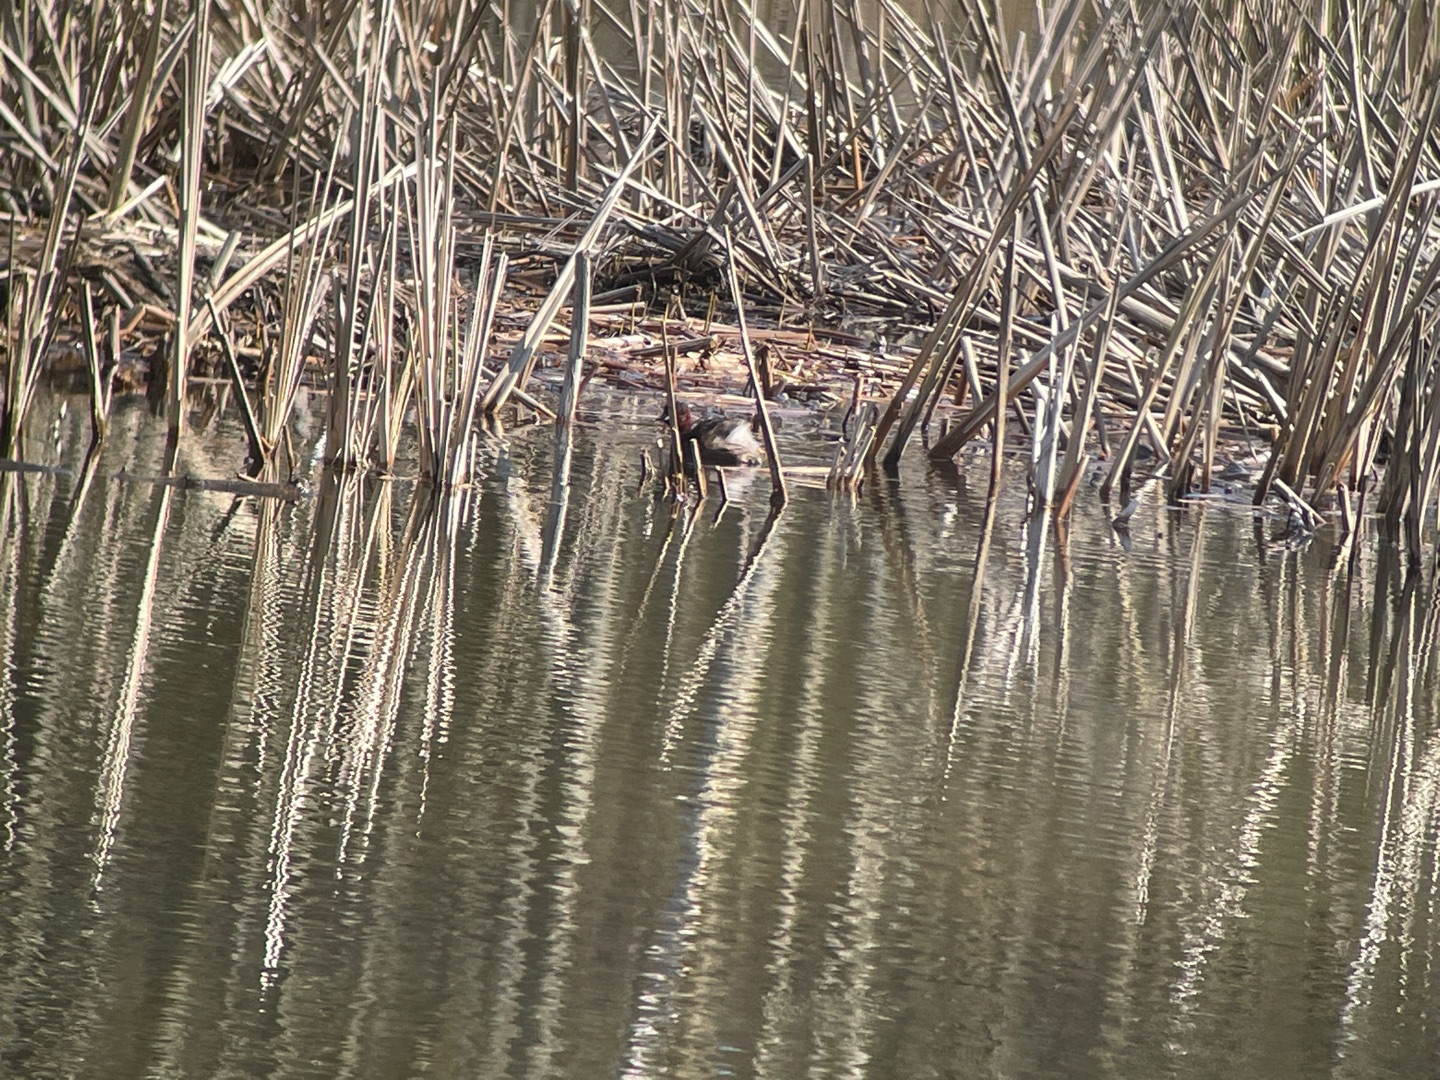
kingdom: Animalia
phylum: Chordata
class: Aves
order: Podicipediformes
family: Podicipedidae
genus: Tachybaptus
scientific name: Tachybaptus ruficollis
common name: Lille lappedykker
